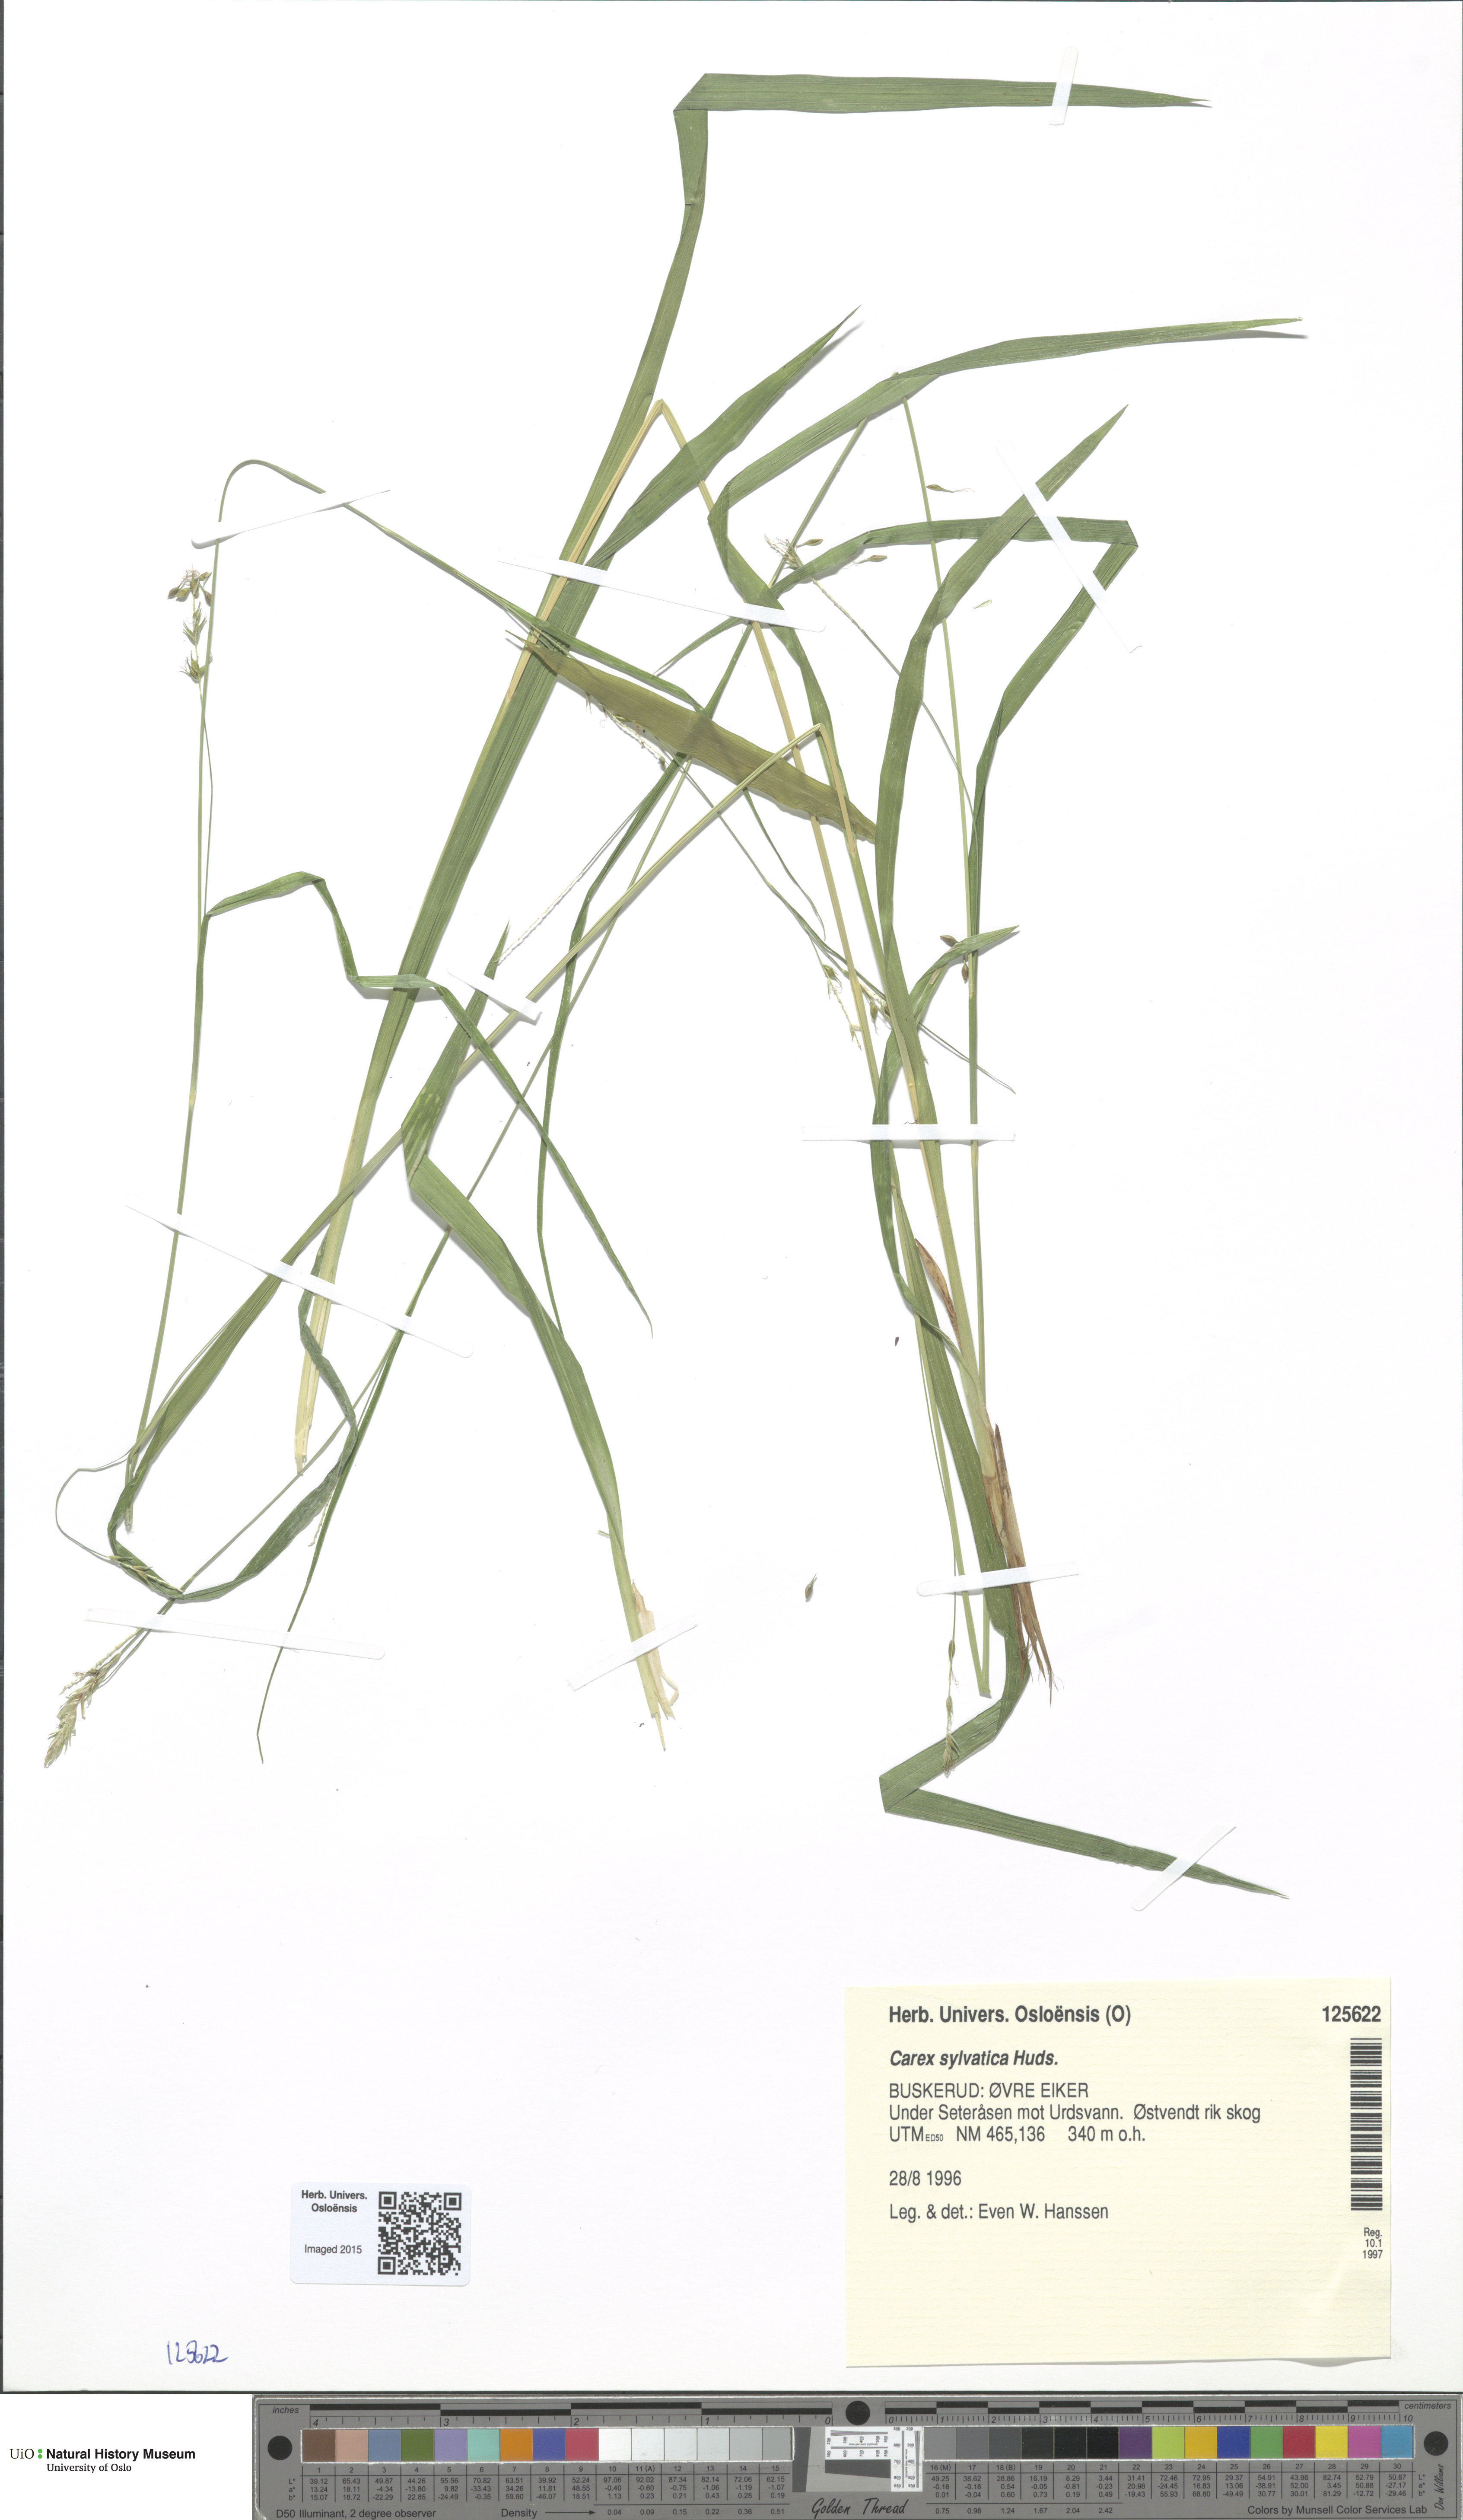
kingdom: Plantae
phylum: Tracheophyta
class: Liliopsida
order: Poales
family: Cyperaceae
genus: Carex
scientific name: Carex sylvatica
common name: Wood-sedge
